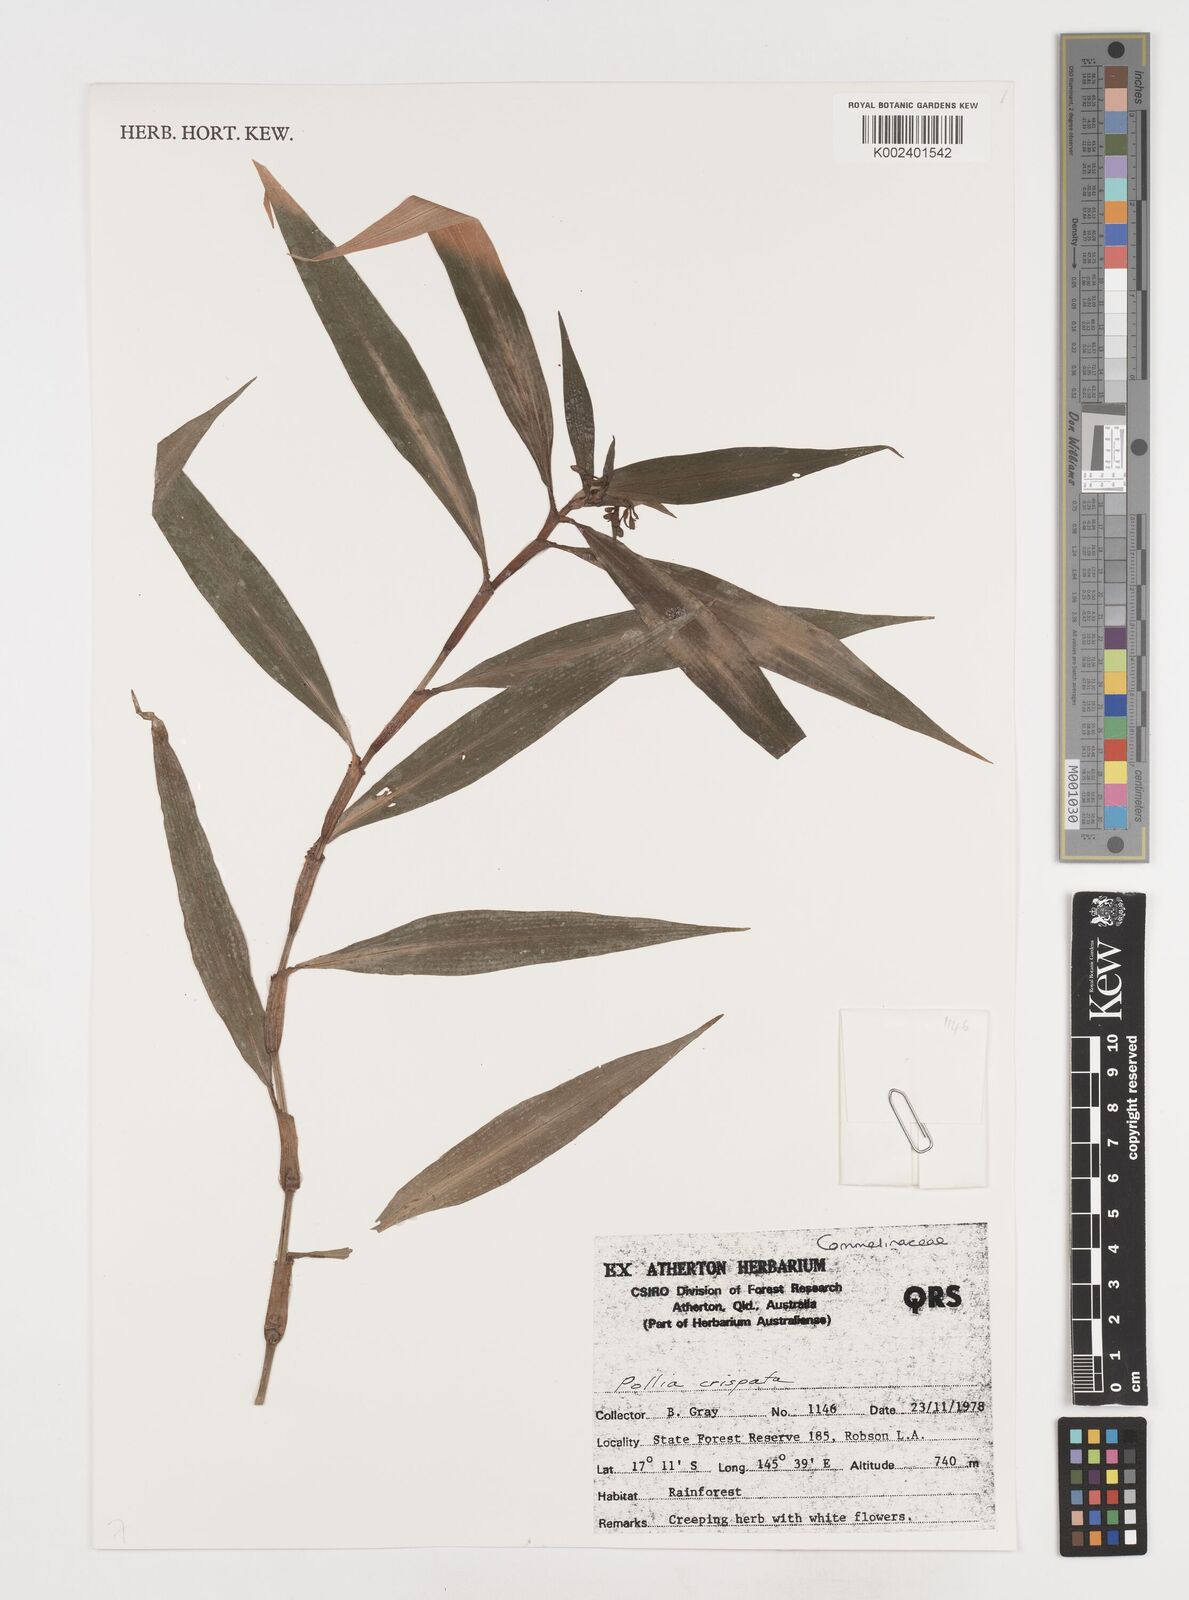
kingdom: Plantae
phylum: Tracheophyta
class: Liliopsida
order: Commelinales
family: Commelinaceae
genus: Pollia
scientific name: Pollia crispata
